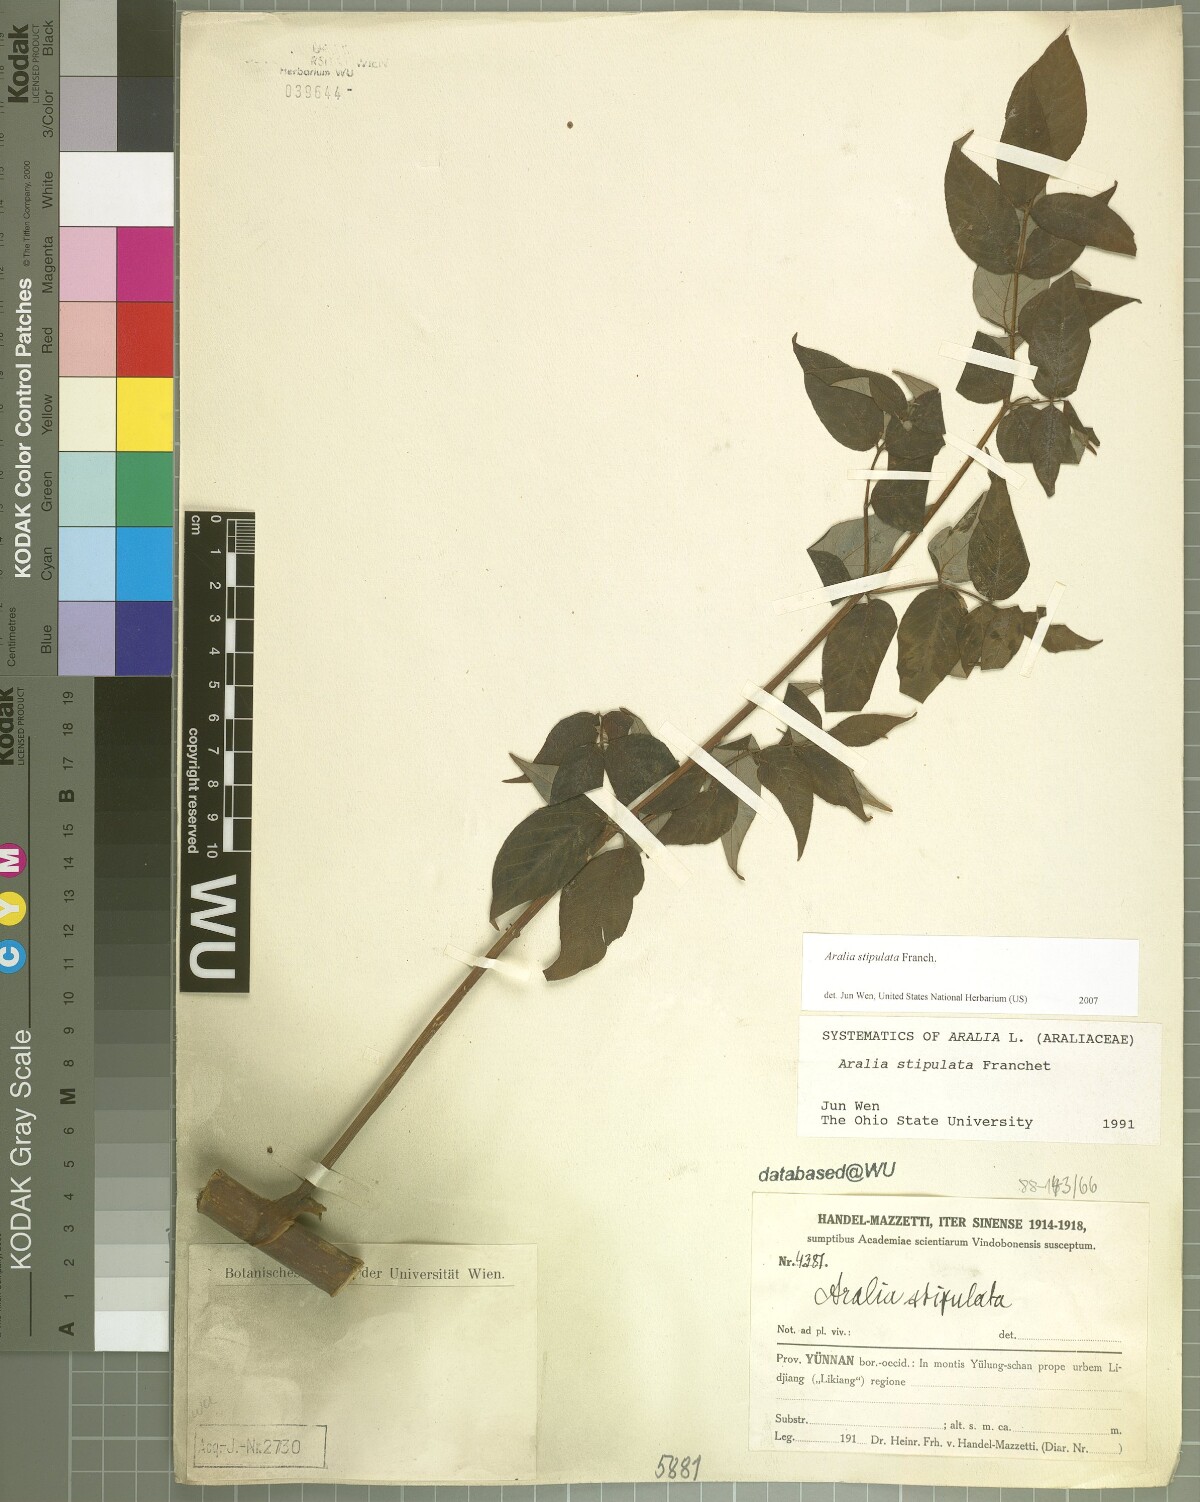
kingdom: Plantae
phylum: Tracheophyta
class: Magnoliopsida
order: Apiales
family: Araliaceae
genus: Aralia
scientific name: Aralia stipulata
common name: Chinese angelica-tree
